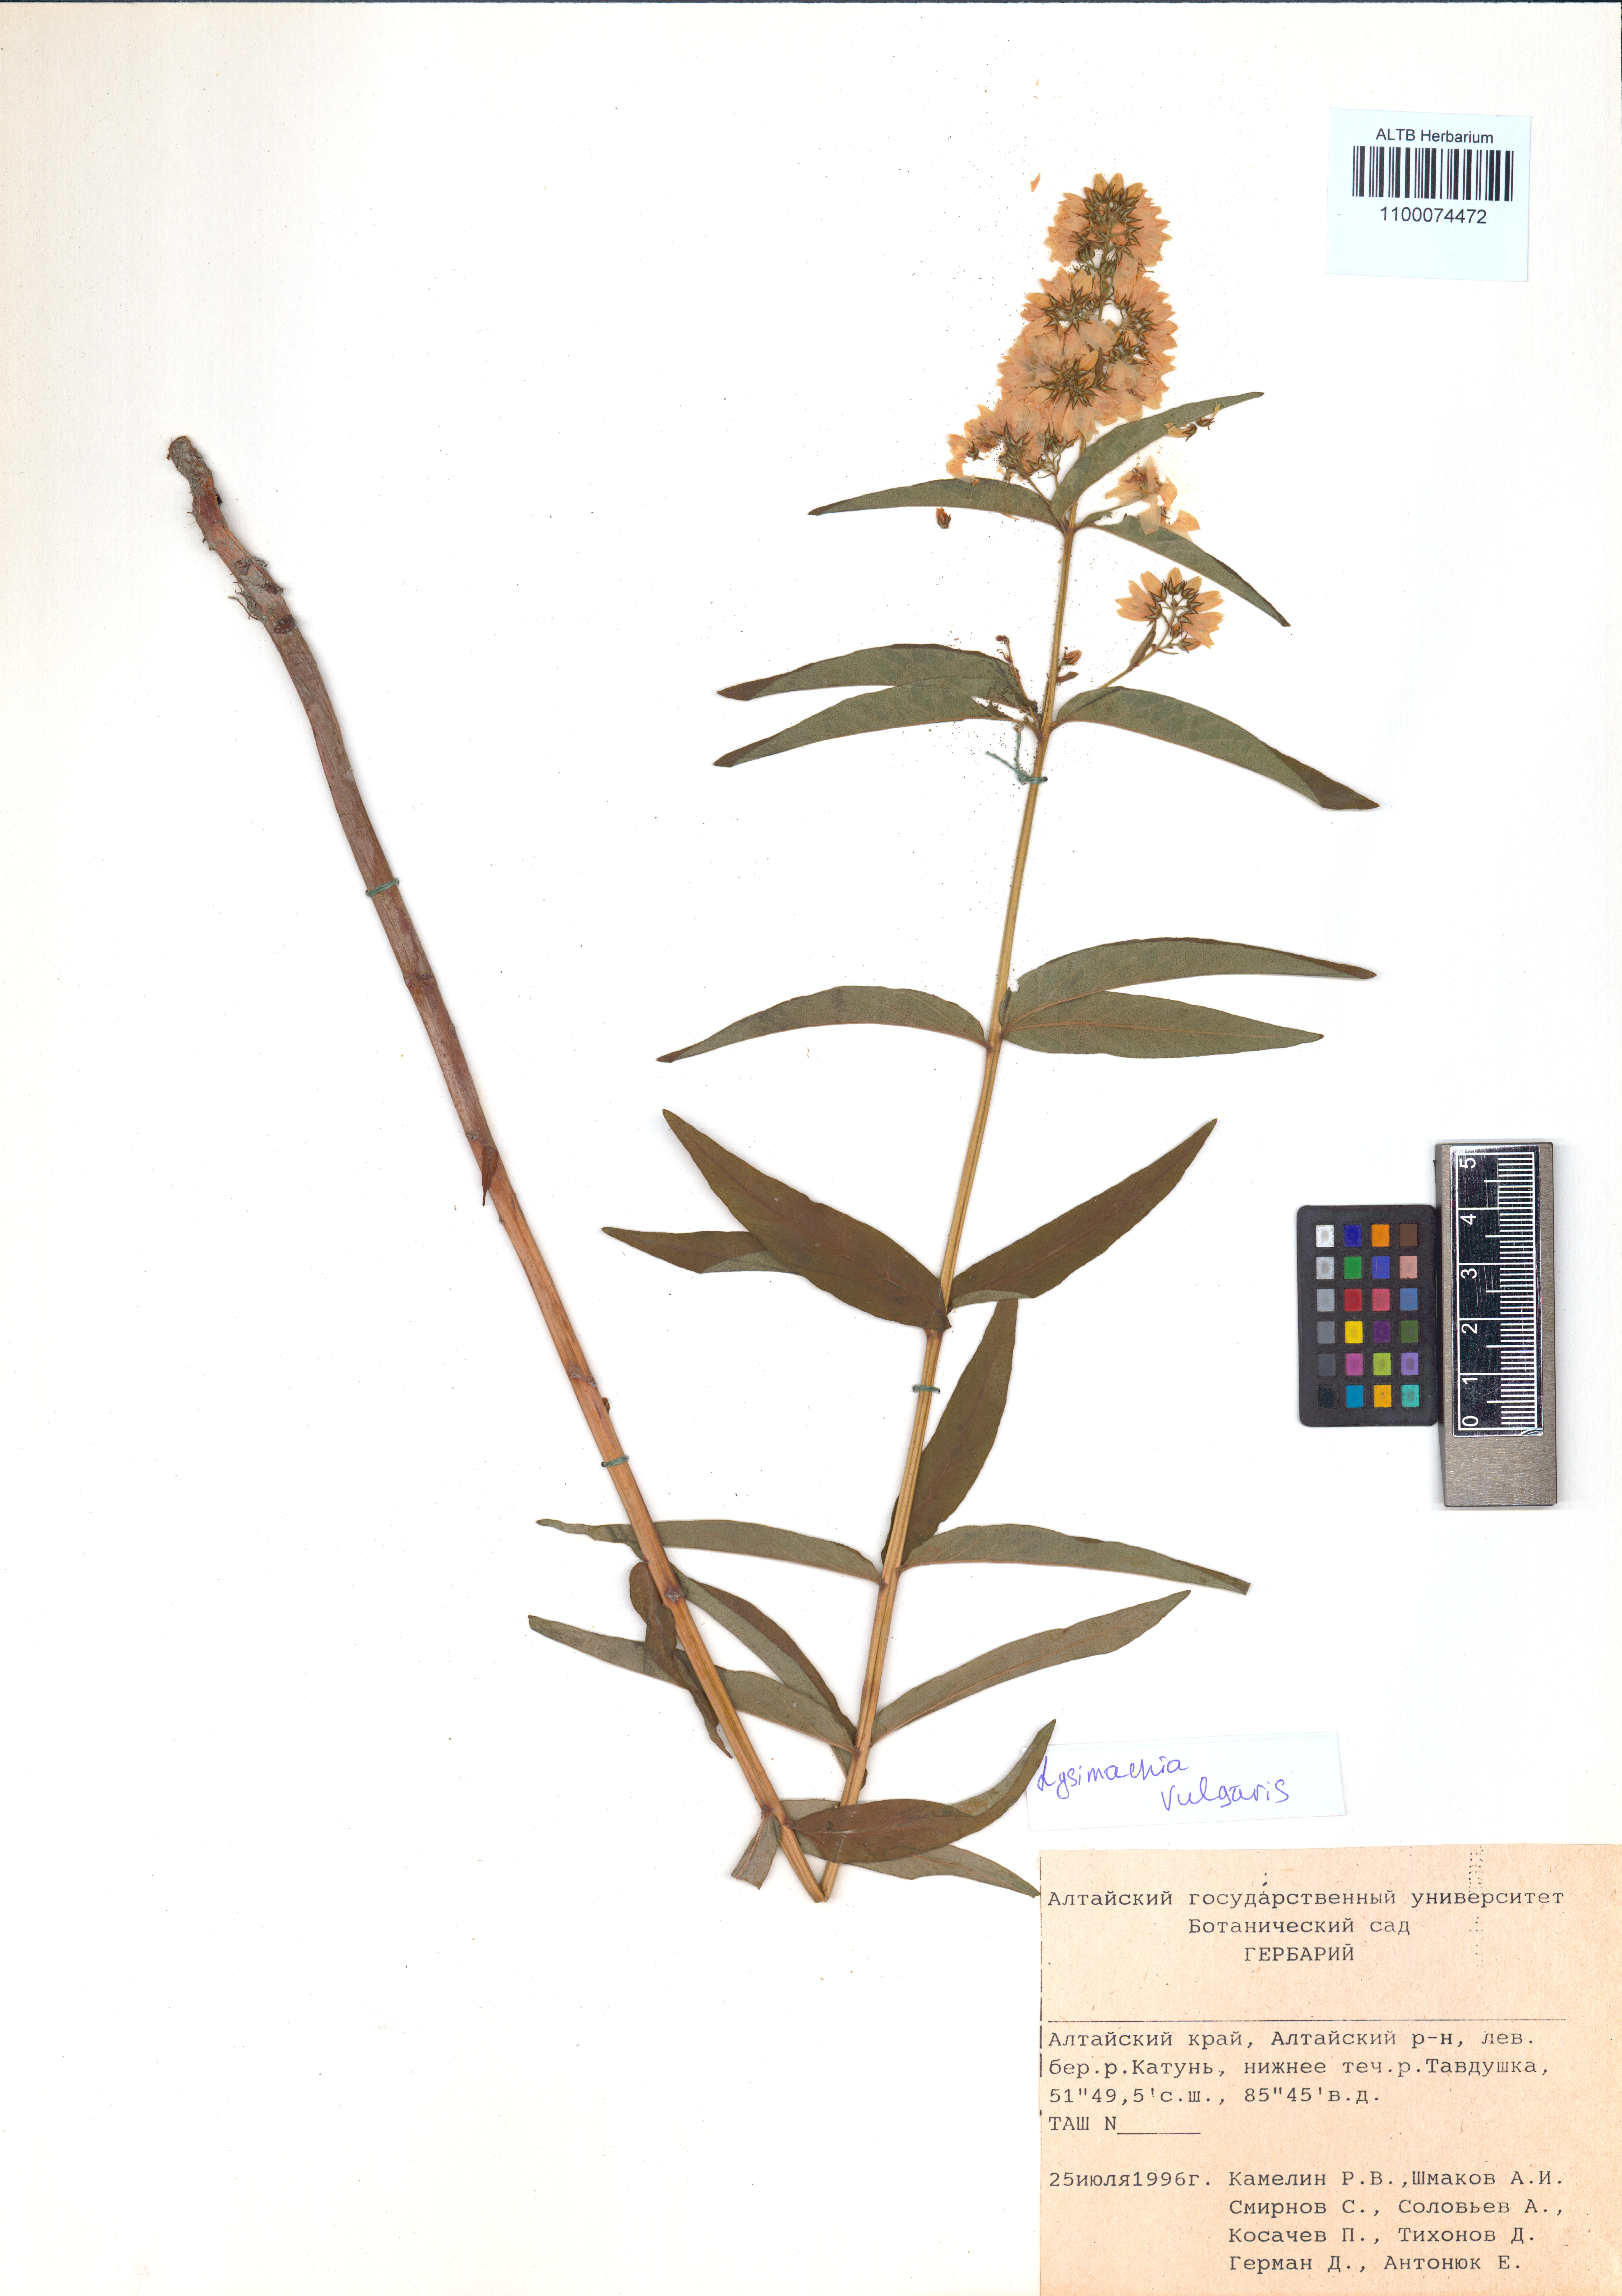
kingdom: Plantae
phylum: Tracheophyta
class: Magnoliopsida
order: Ericales
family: Primulaceae
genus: Lysimachia
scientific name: Lysimachia vulgaris
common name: Yellow loosestrife
